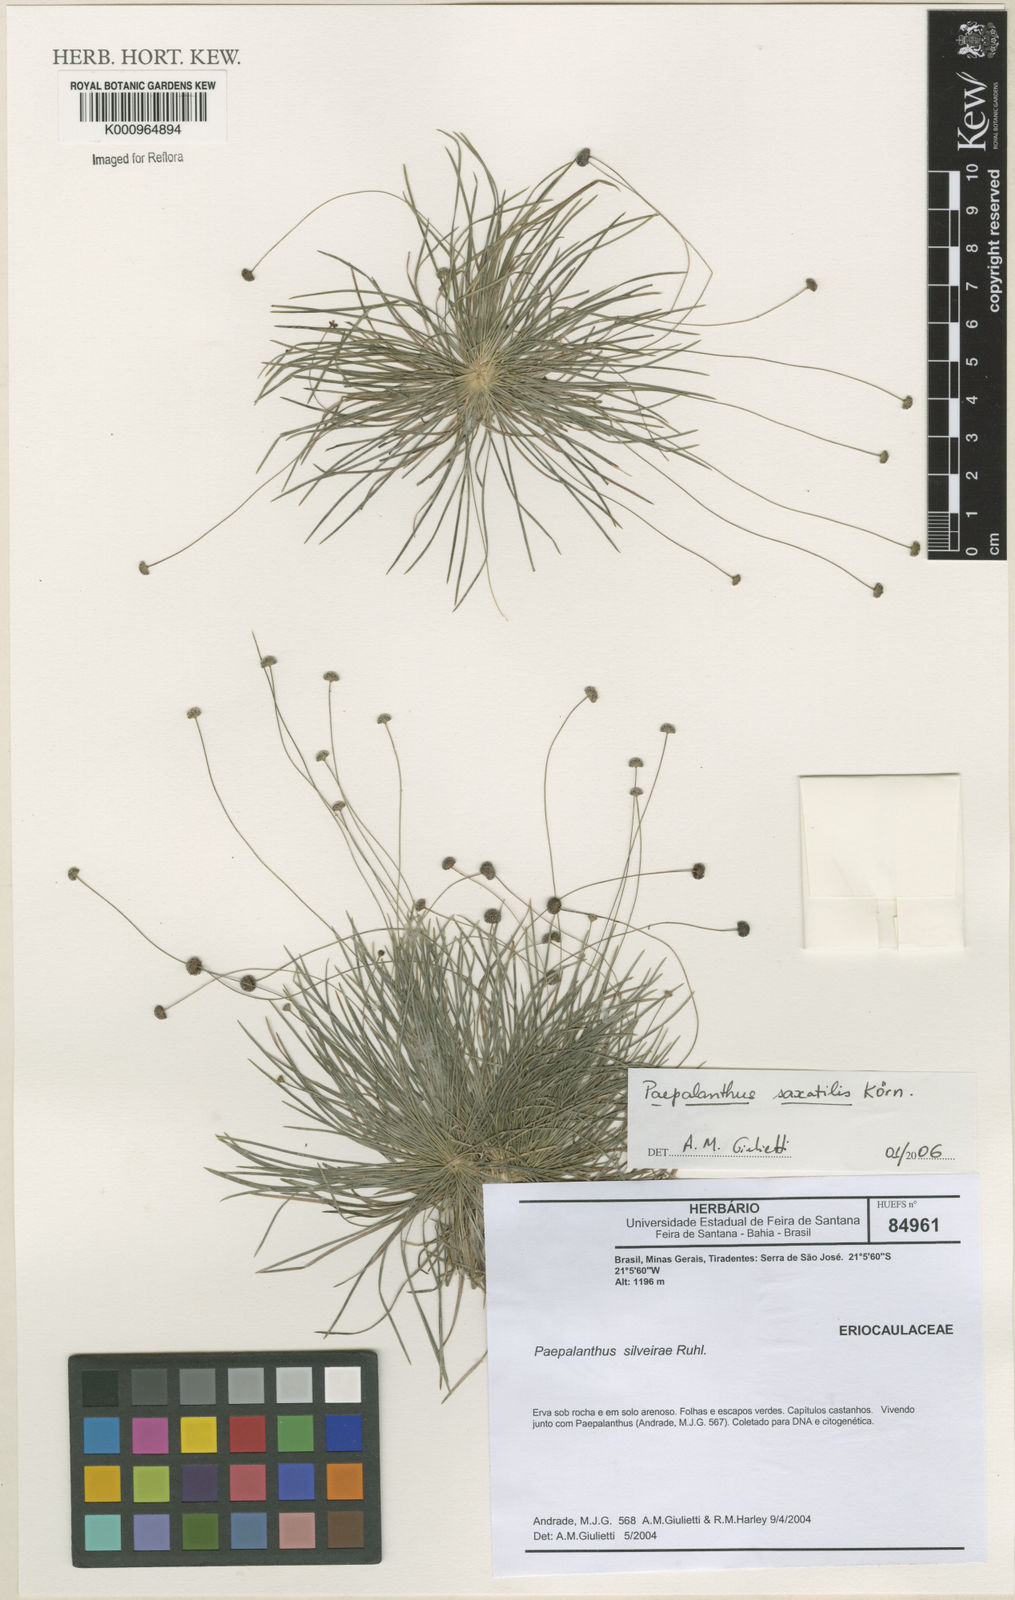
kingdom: Plantae
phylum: Tracheophyta
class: Liliopsida
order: Poales
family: Eriocaulaceae
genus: Paepalanthus
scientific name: Paepalanthus
